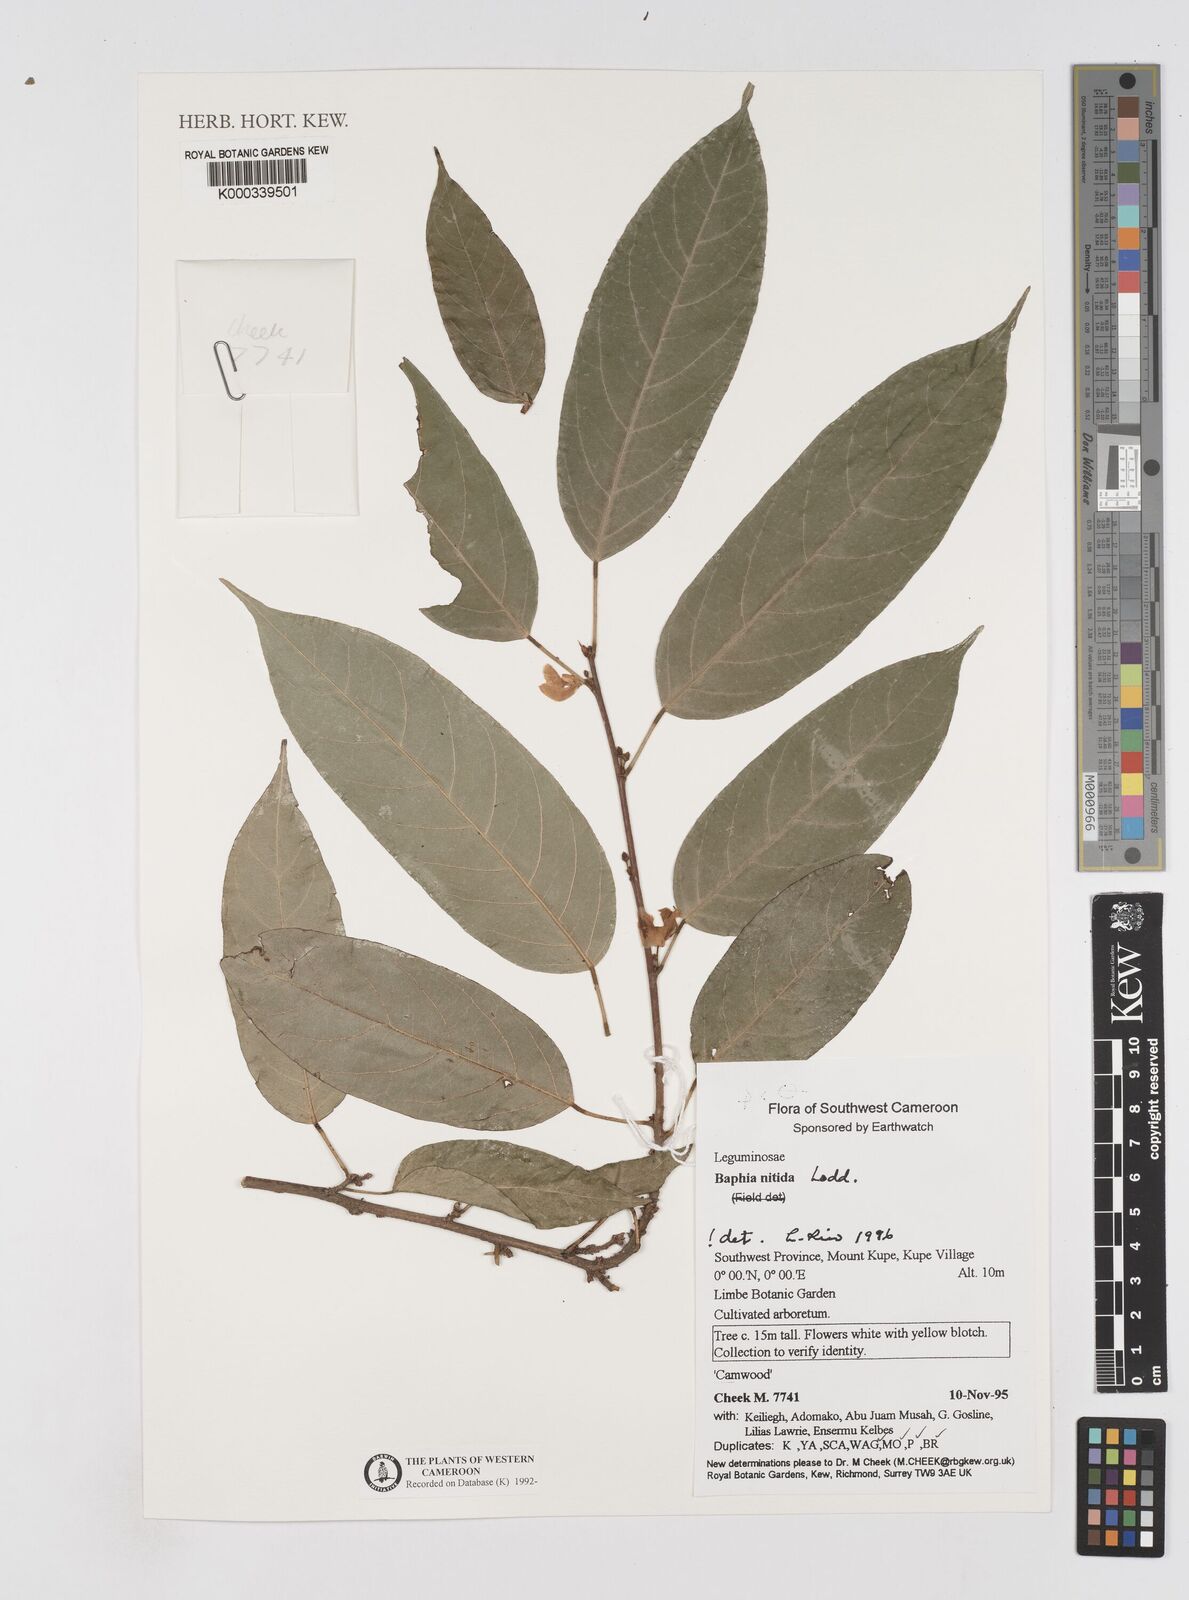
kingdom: Plantae
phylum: Tracheophyta
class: Magnoliopsida
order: Fabales
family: Fabaceae
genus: Baphia
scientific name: Baphia nitida
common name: Camwood
